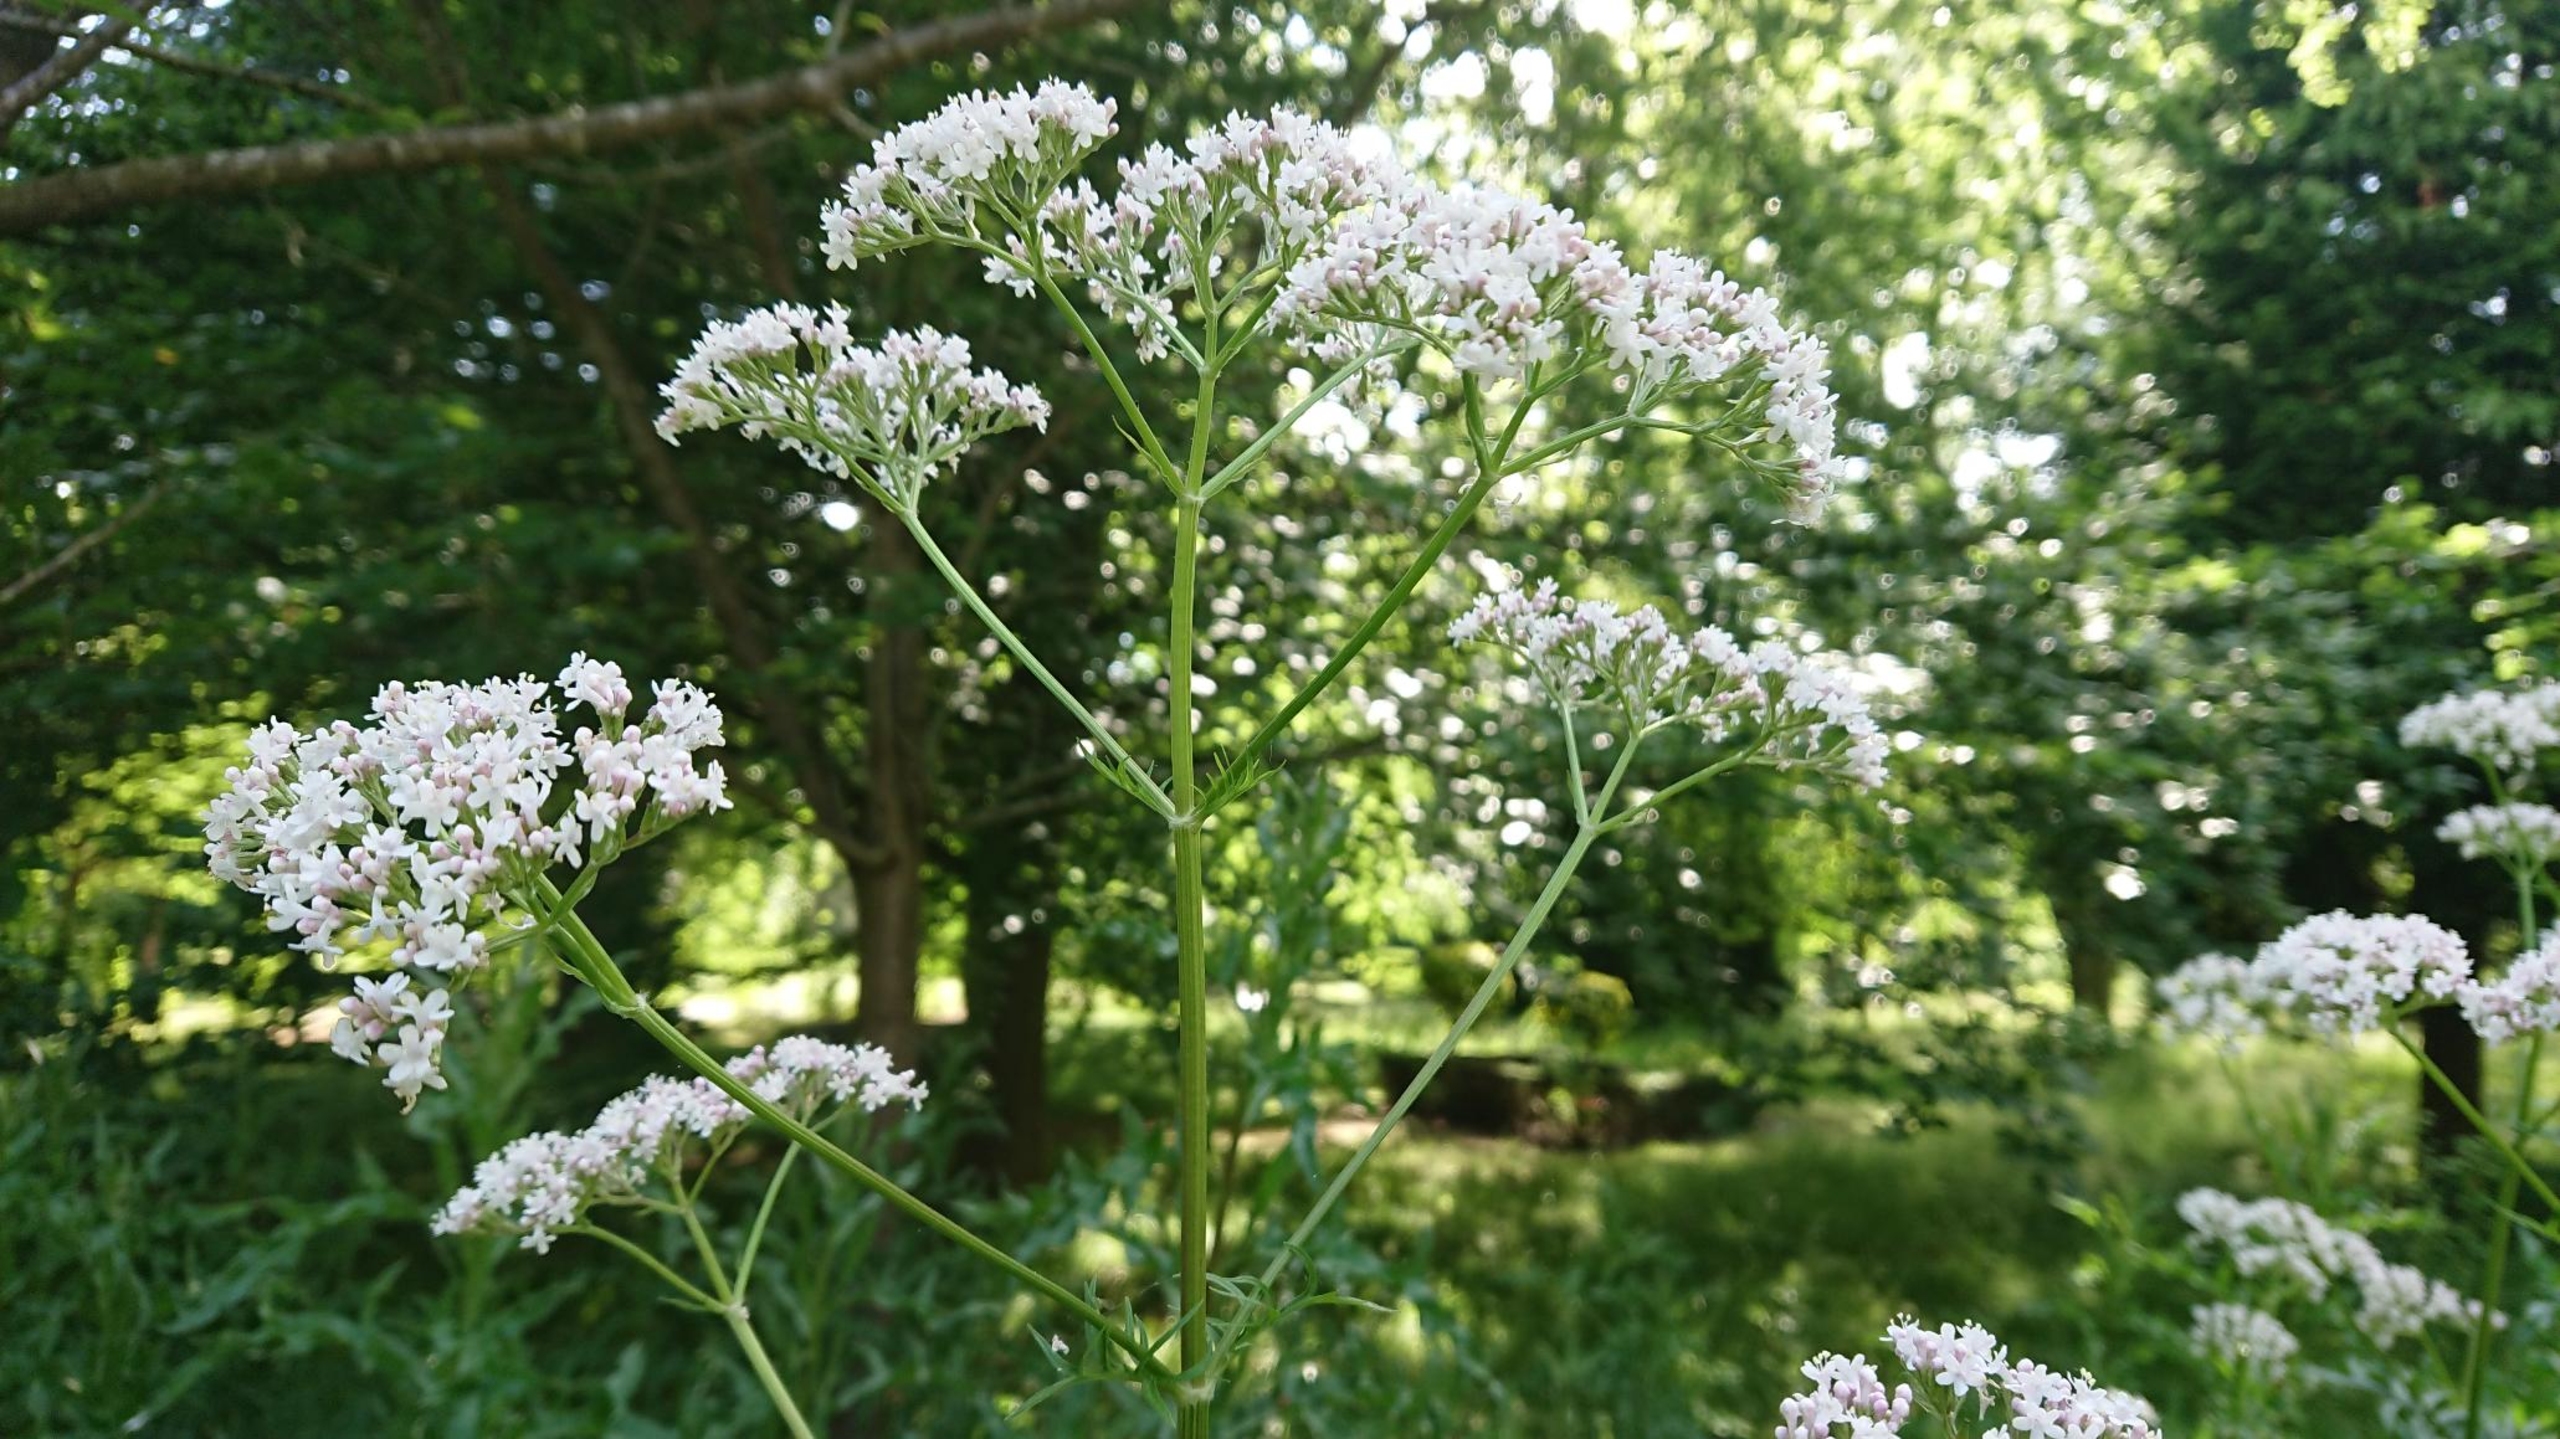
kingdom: Plantae
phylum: Tracheophyta
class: Magnoliopsida
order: Dipsacales
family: Caprifoliaceae
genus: Valeriana
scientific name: Valeriana officinalis
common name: Læge-baldrian
